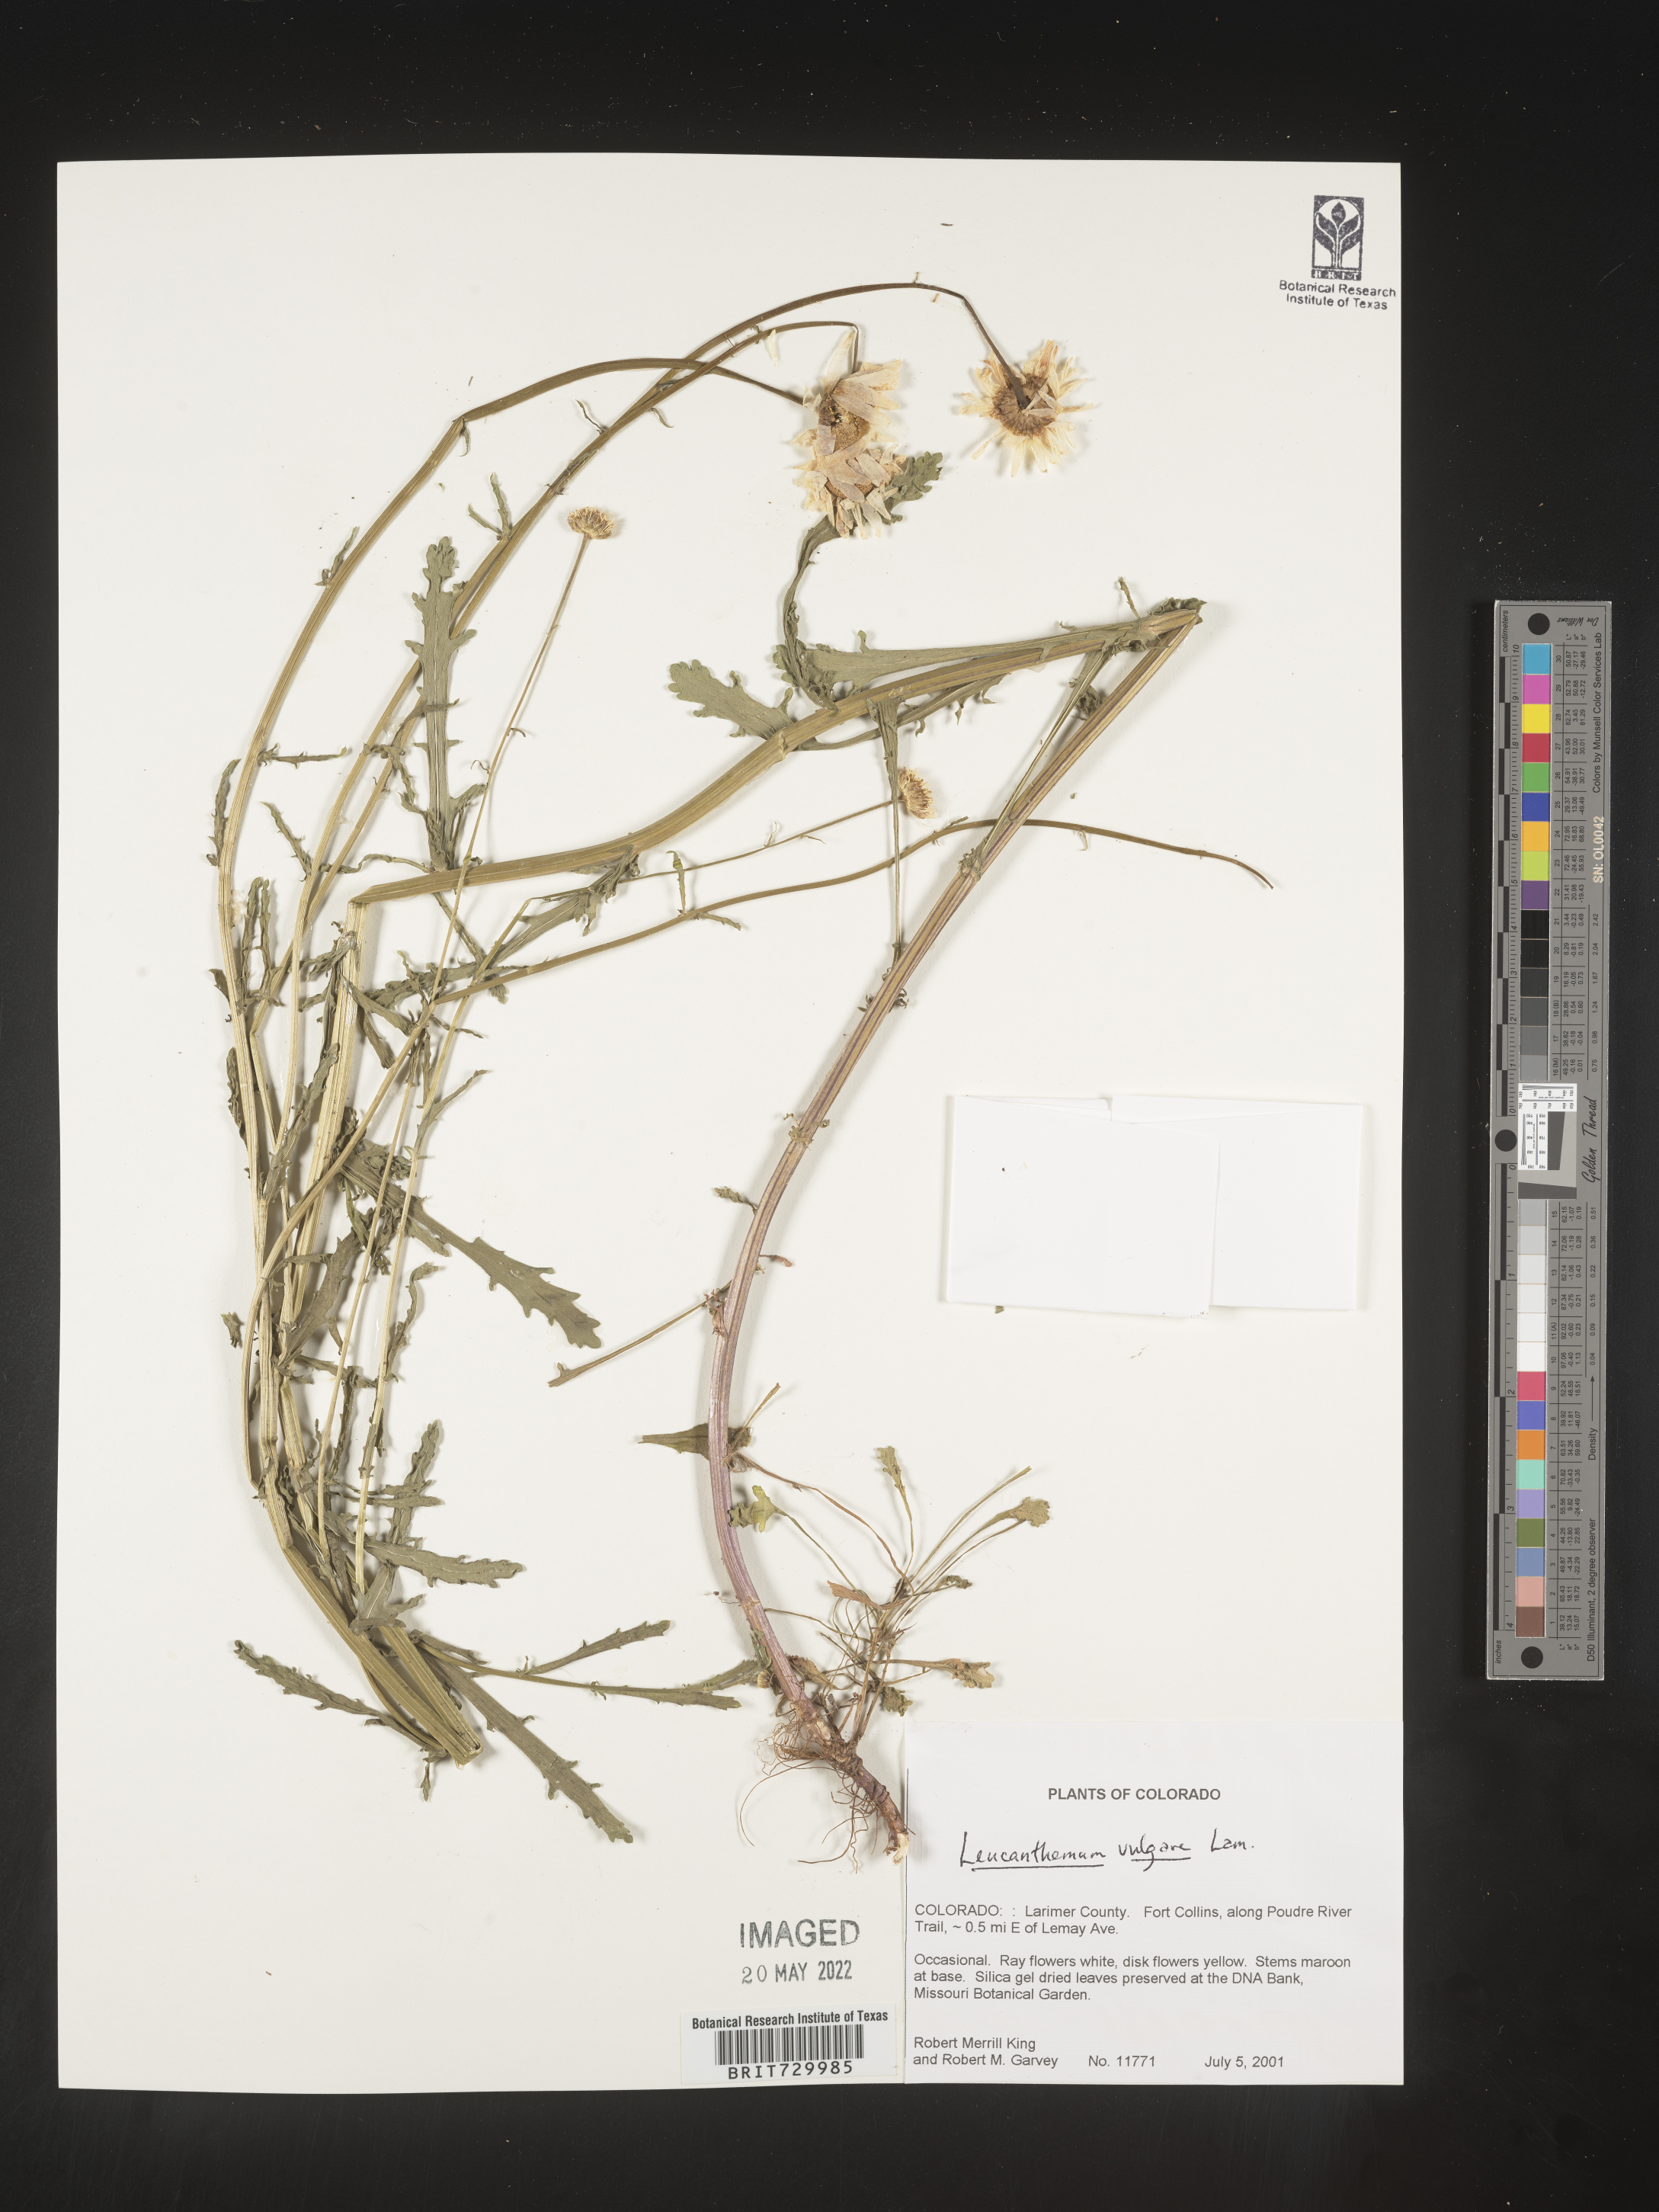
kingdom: Plantae
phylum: Tracheophyta
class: Magnoliopsida
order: Asterales
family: Asteraceae
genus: Leucanthemum
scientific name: Leucanthemum vulgare
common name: Oxeye daisy
